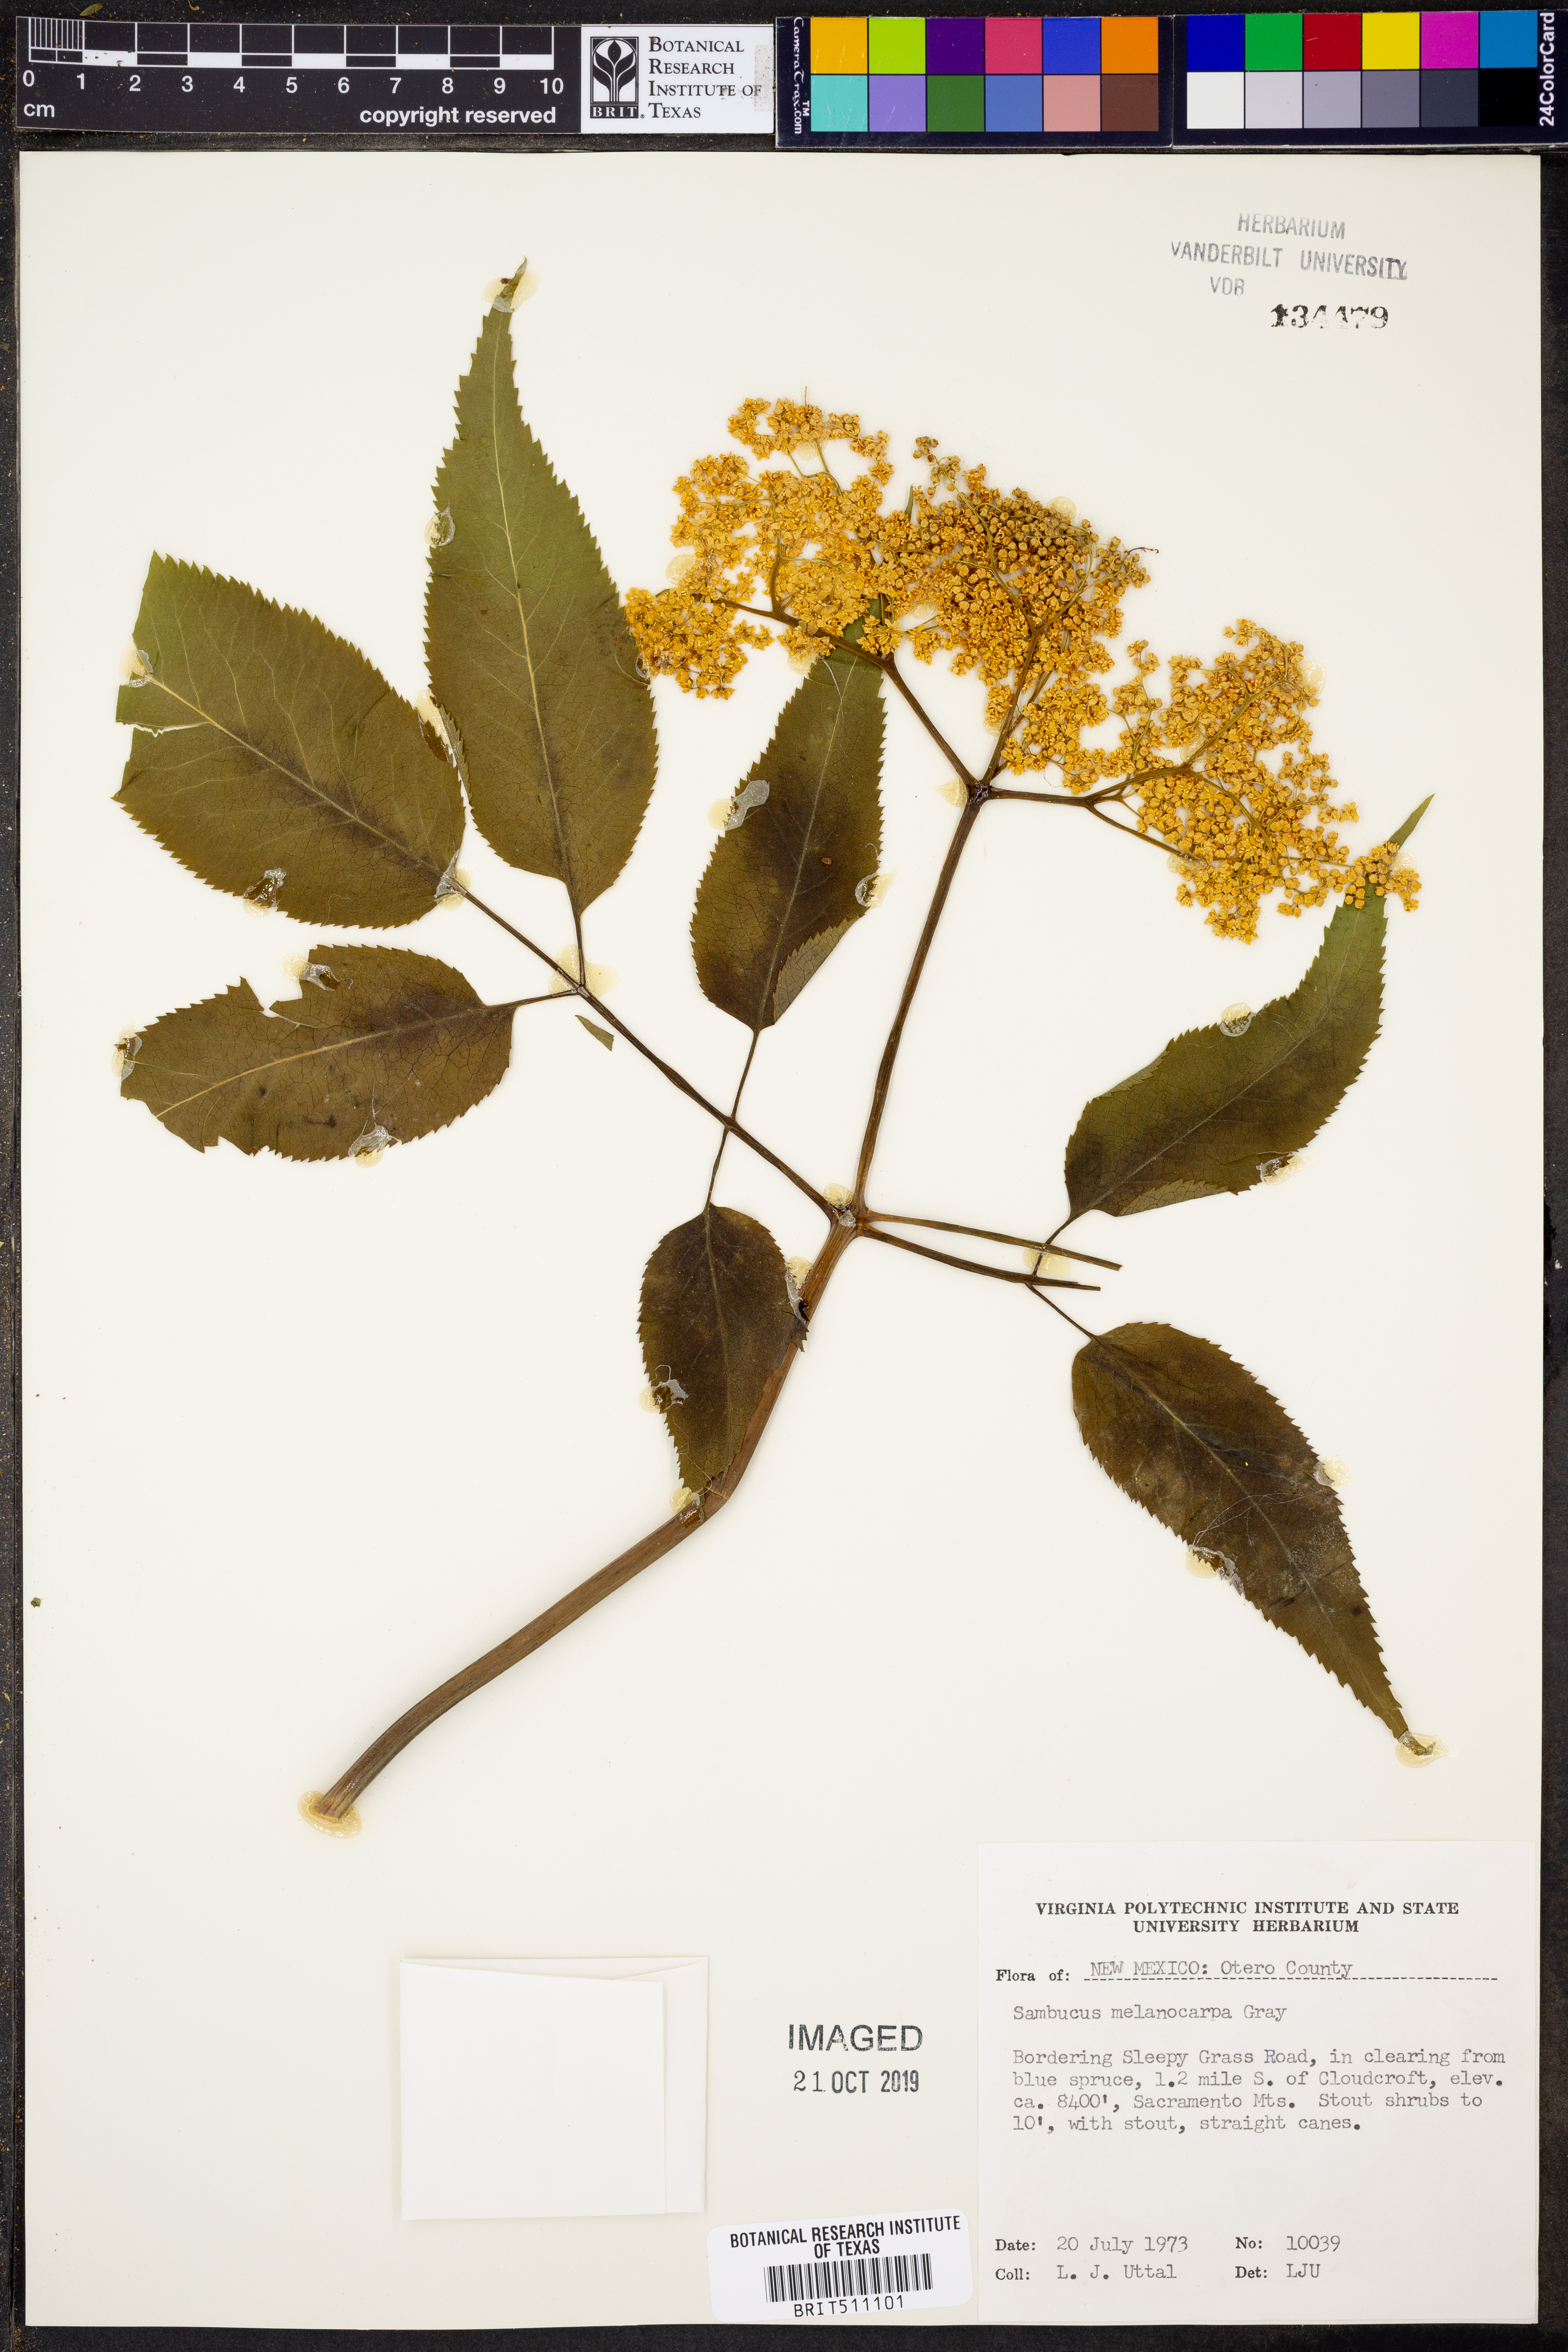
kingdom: Plantae
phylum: Tracheophyta
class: Magnoliopsida
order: Dipsacales
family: Viburnaceae
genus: Sambucus
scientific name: Sambucus racemosa
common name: Red-berried elder
